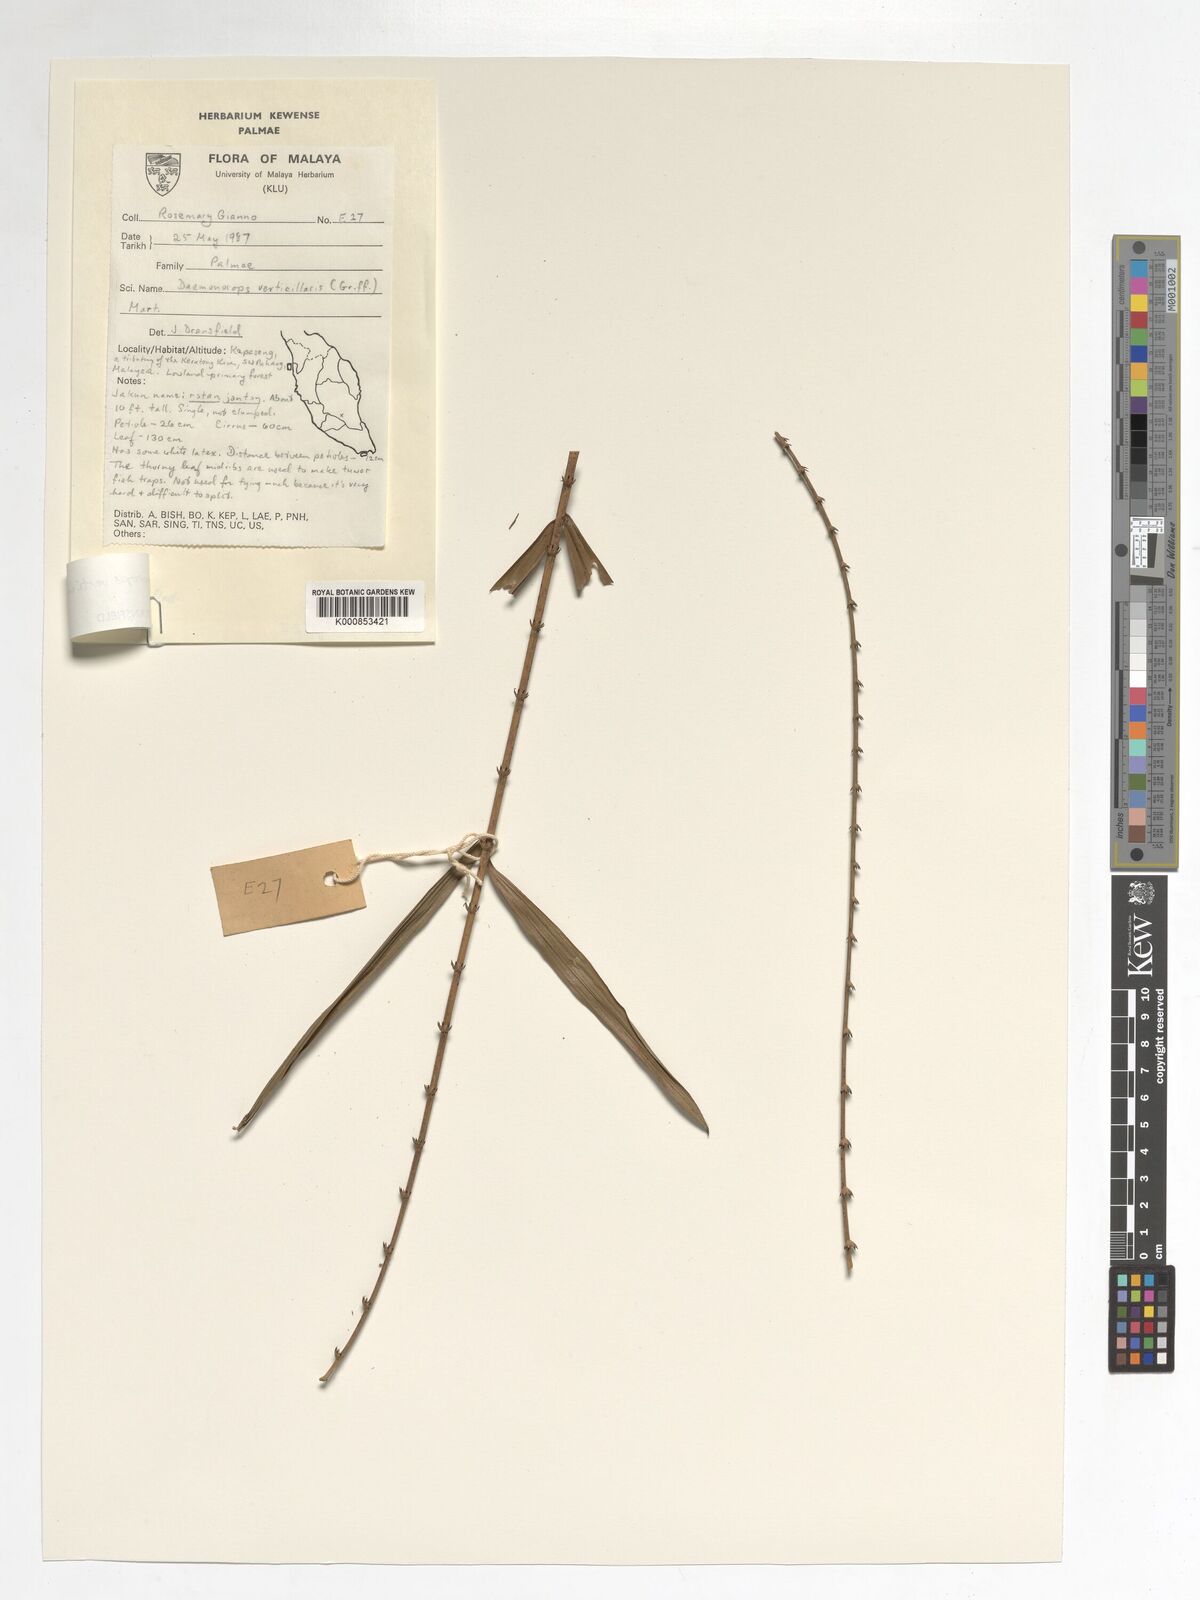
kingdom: Plantae
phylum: Tracheophyta
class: Liliopsida
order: Arecales
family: Arecaceae
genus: Calamus
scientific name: Calamus verticillaris
